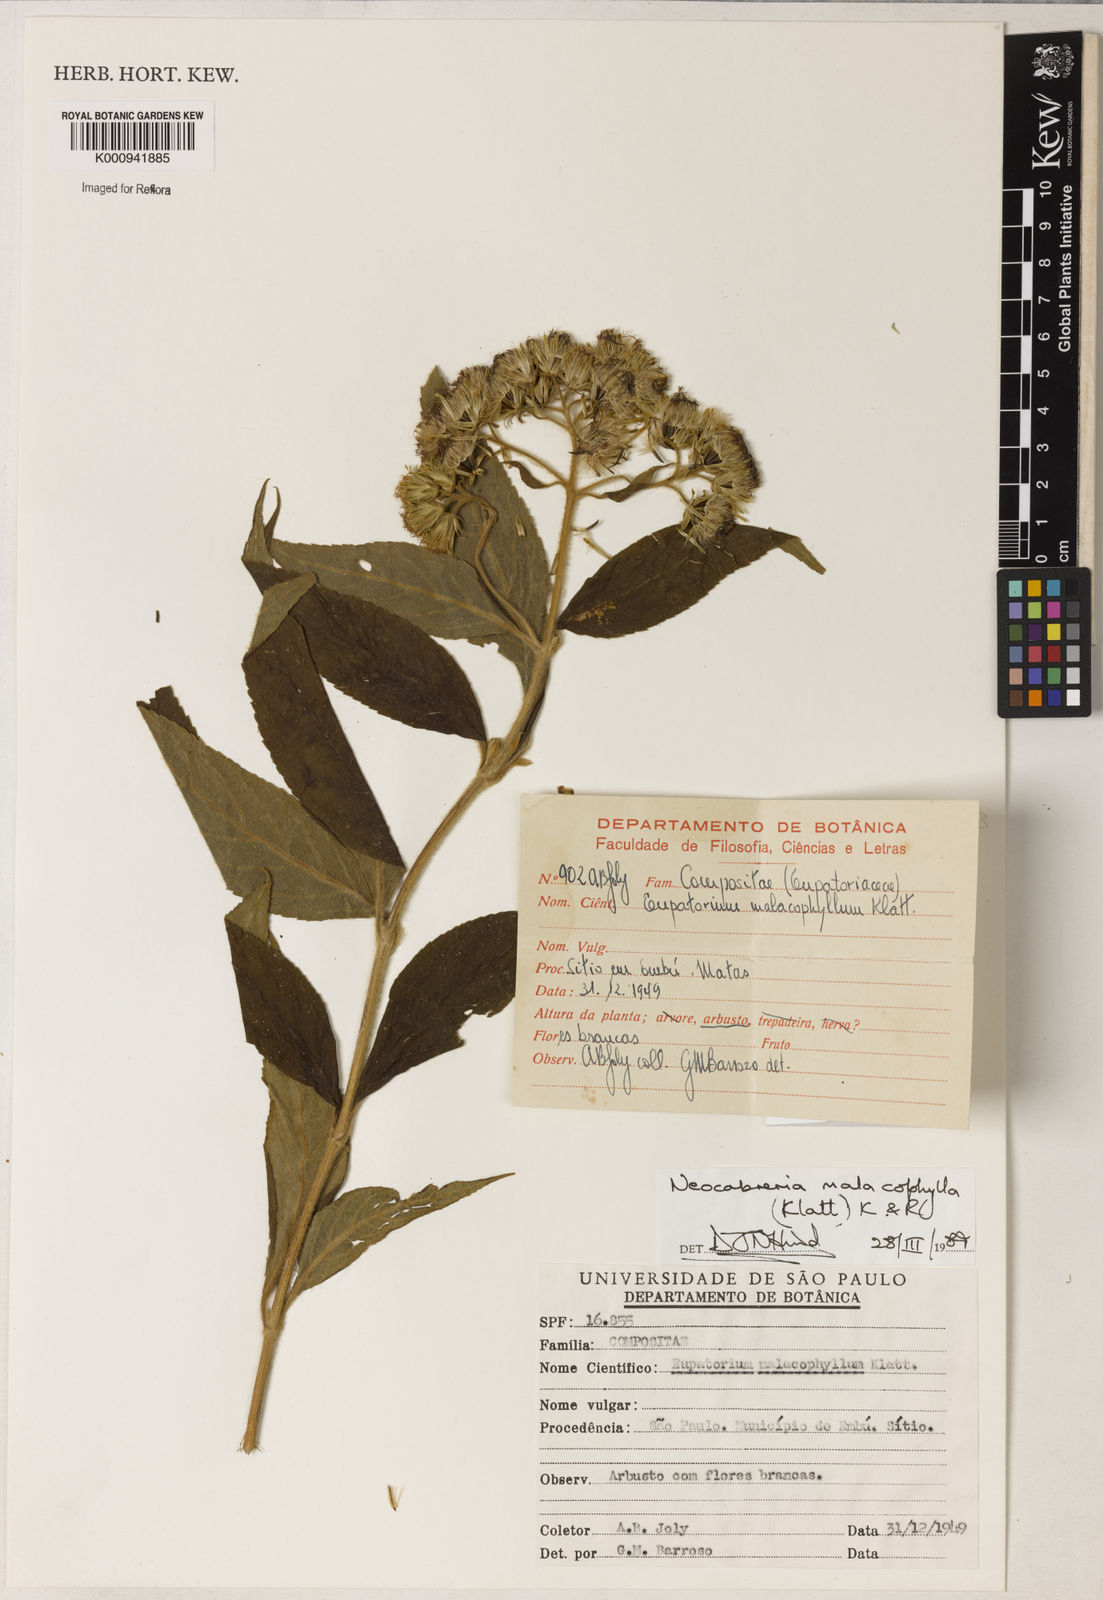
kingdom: Plantae
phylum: Tracheophyta
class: Magnoliopsida
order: Asterales
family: Asteraceae
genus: Neocabreria
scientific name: Neocabreria
